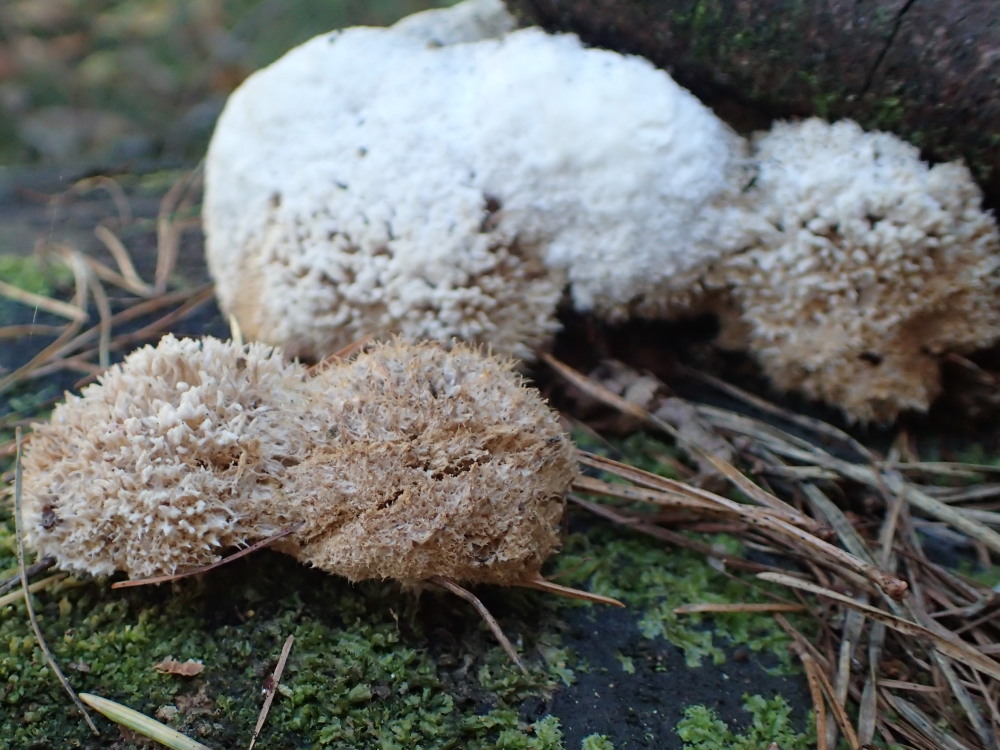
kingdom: Fungi
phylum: Basidiomycota
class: Agaricomycetes
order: Polyporales
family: Dacryobolaceae
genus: Postia
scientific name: Postia ptychogaster
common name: støvende kødporesvamp
